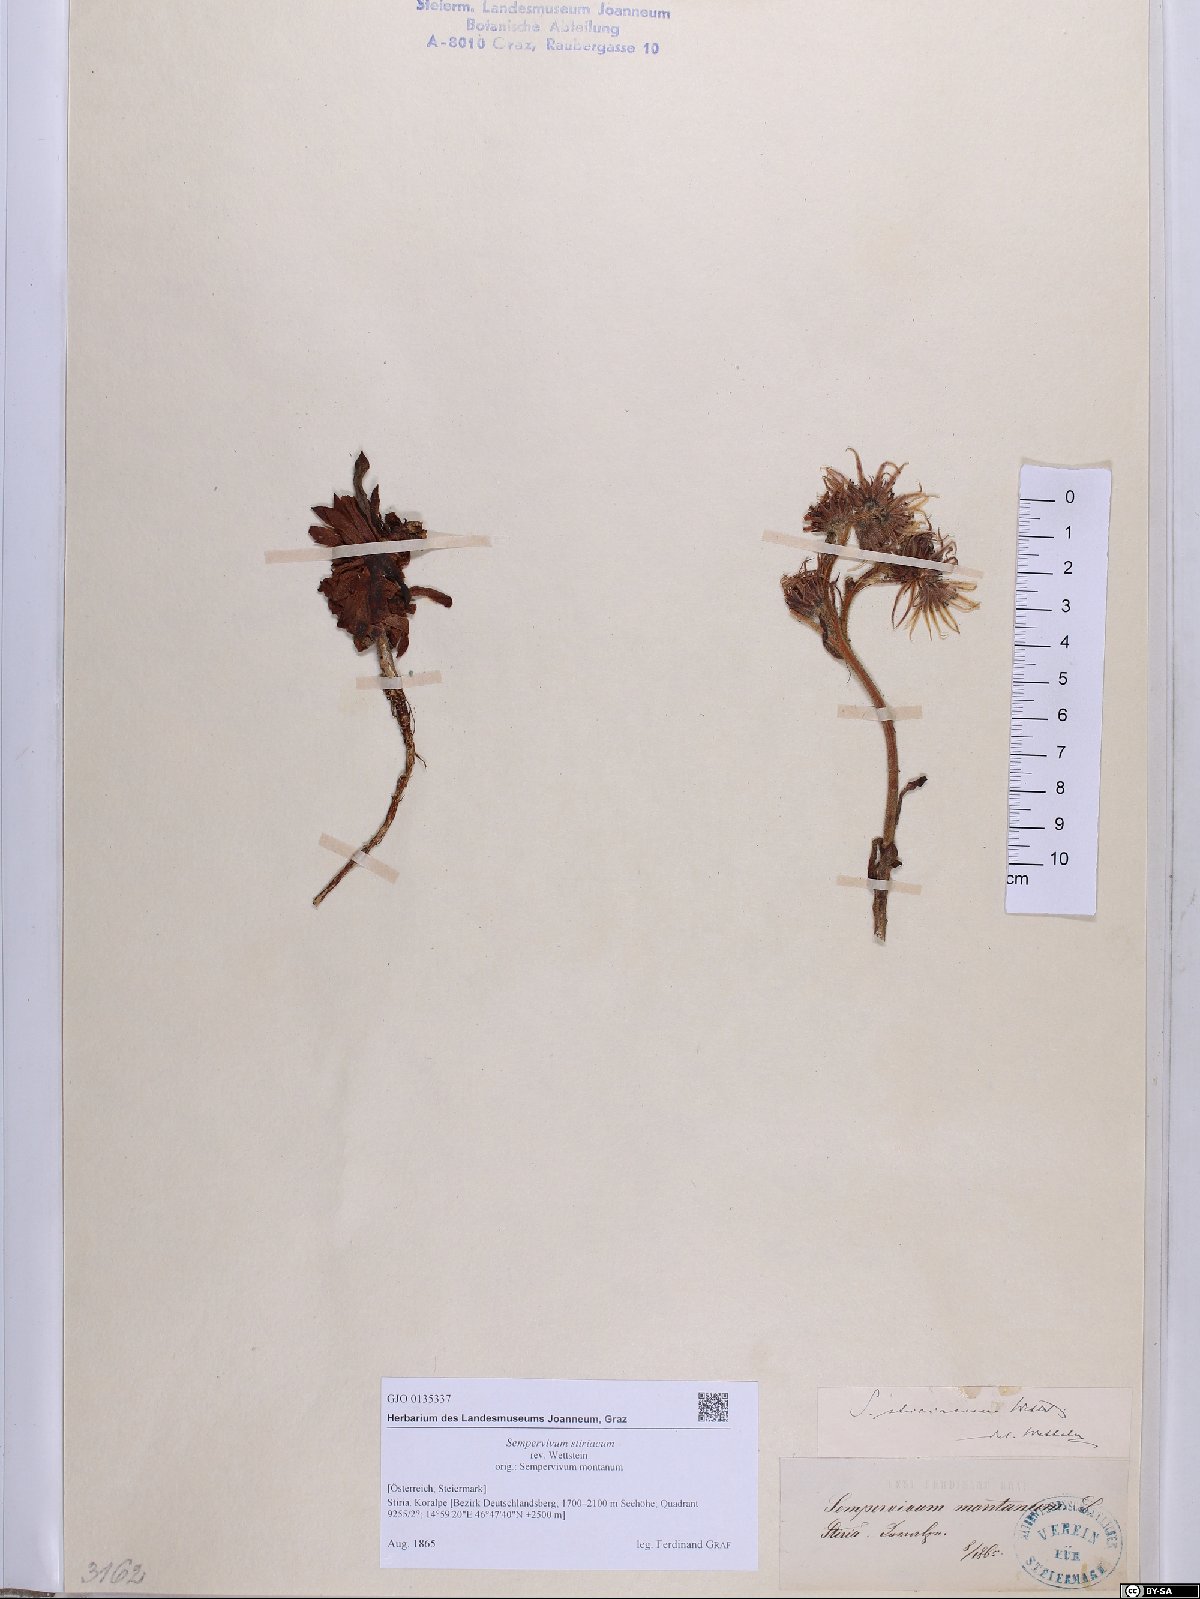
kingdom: Plantae
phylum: Tracheophyta
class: Magnoliopsida
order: Saxifragales
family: Crassulaceae
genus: Sempervivum
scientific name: Sempervivum montanum
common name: Mountain house-leek
